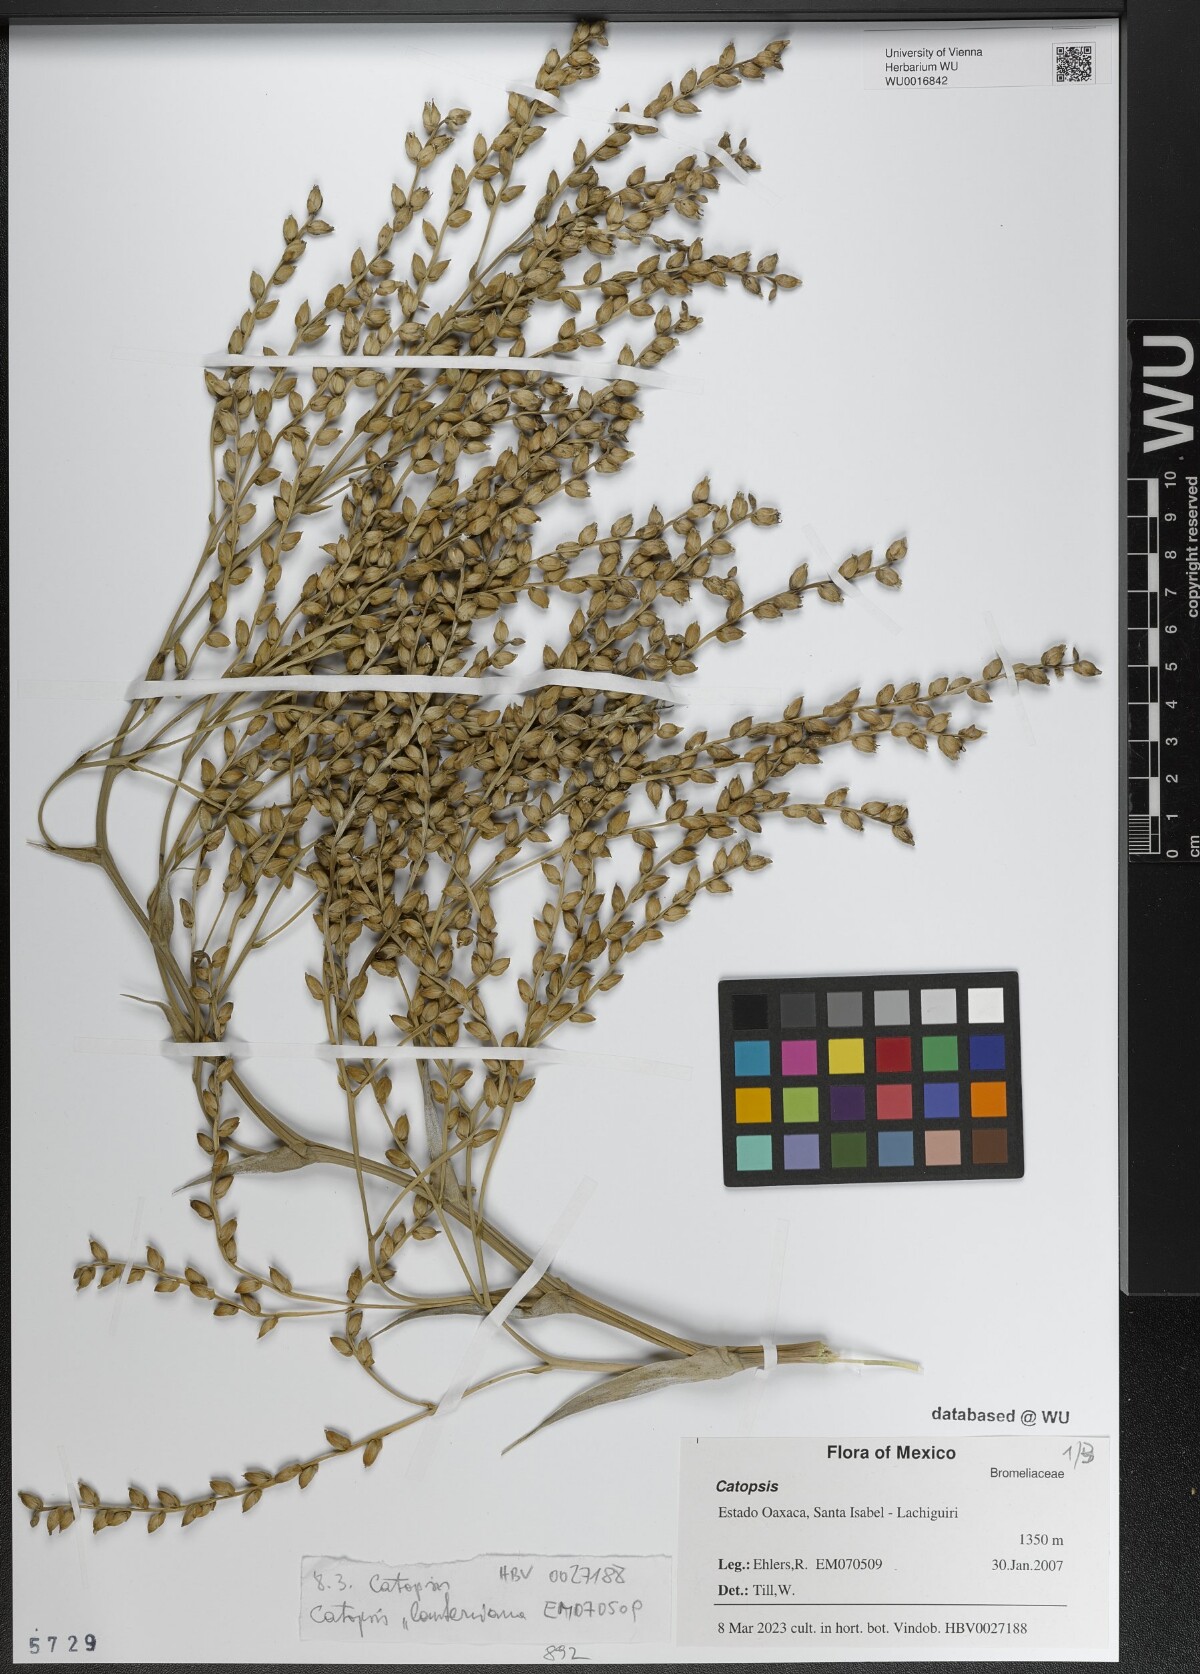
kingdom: Plantae
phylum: Tracheophyta
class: Liliopsida
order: Poales
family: Bromeliaceae
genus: Catopsis
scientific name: Catopsis
